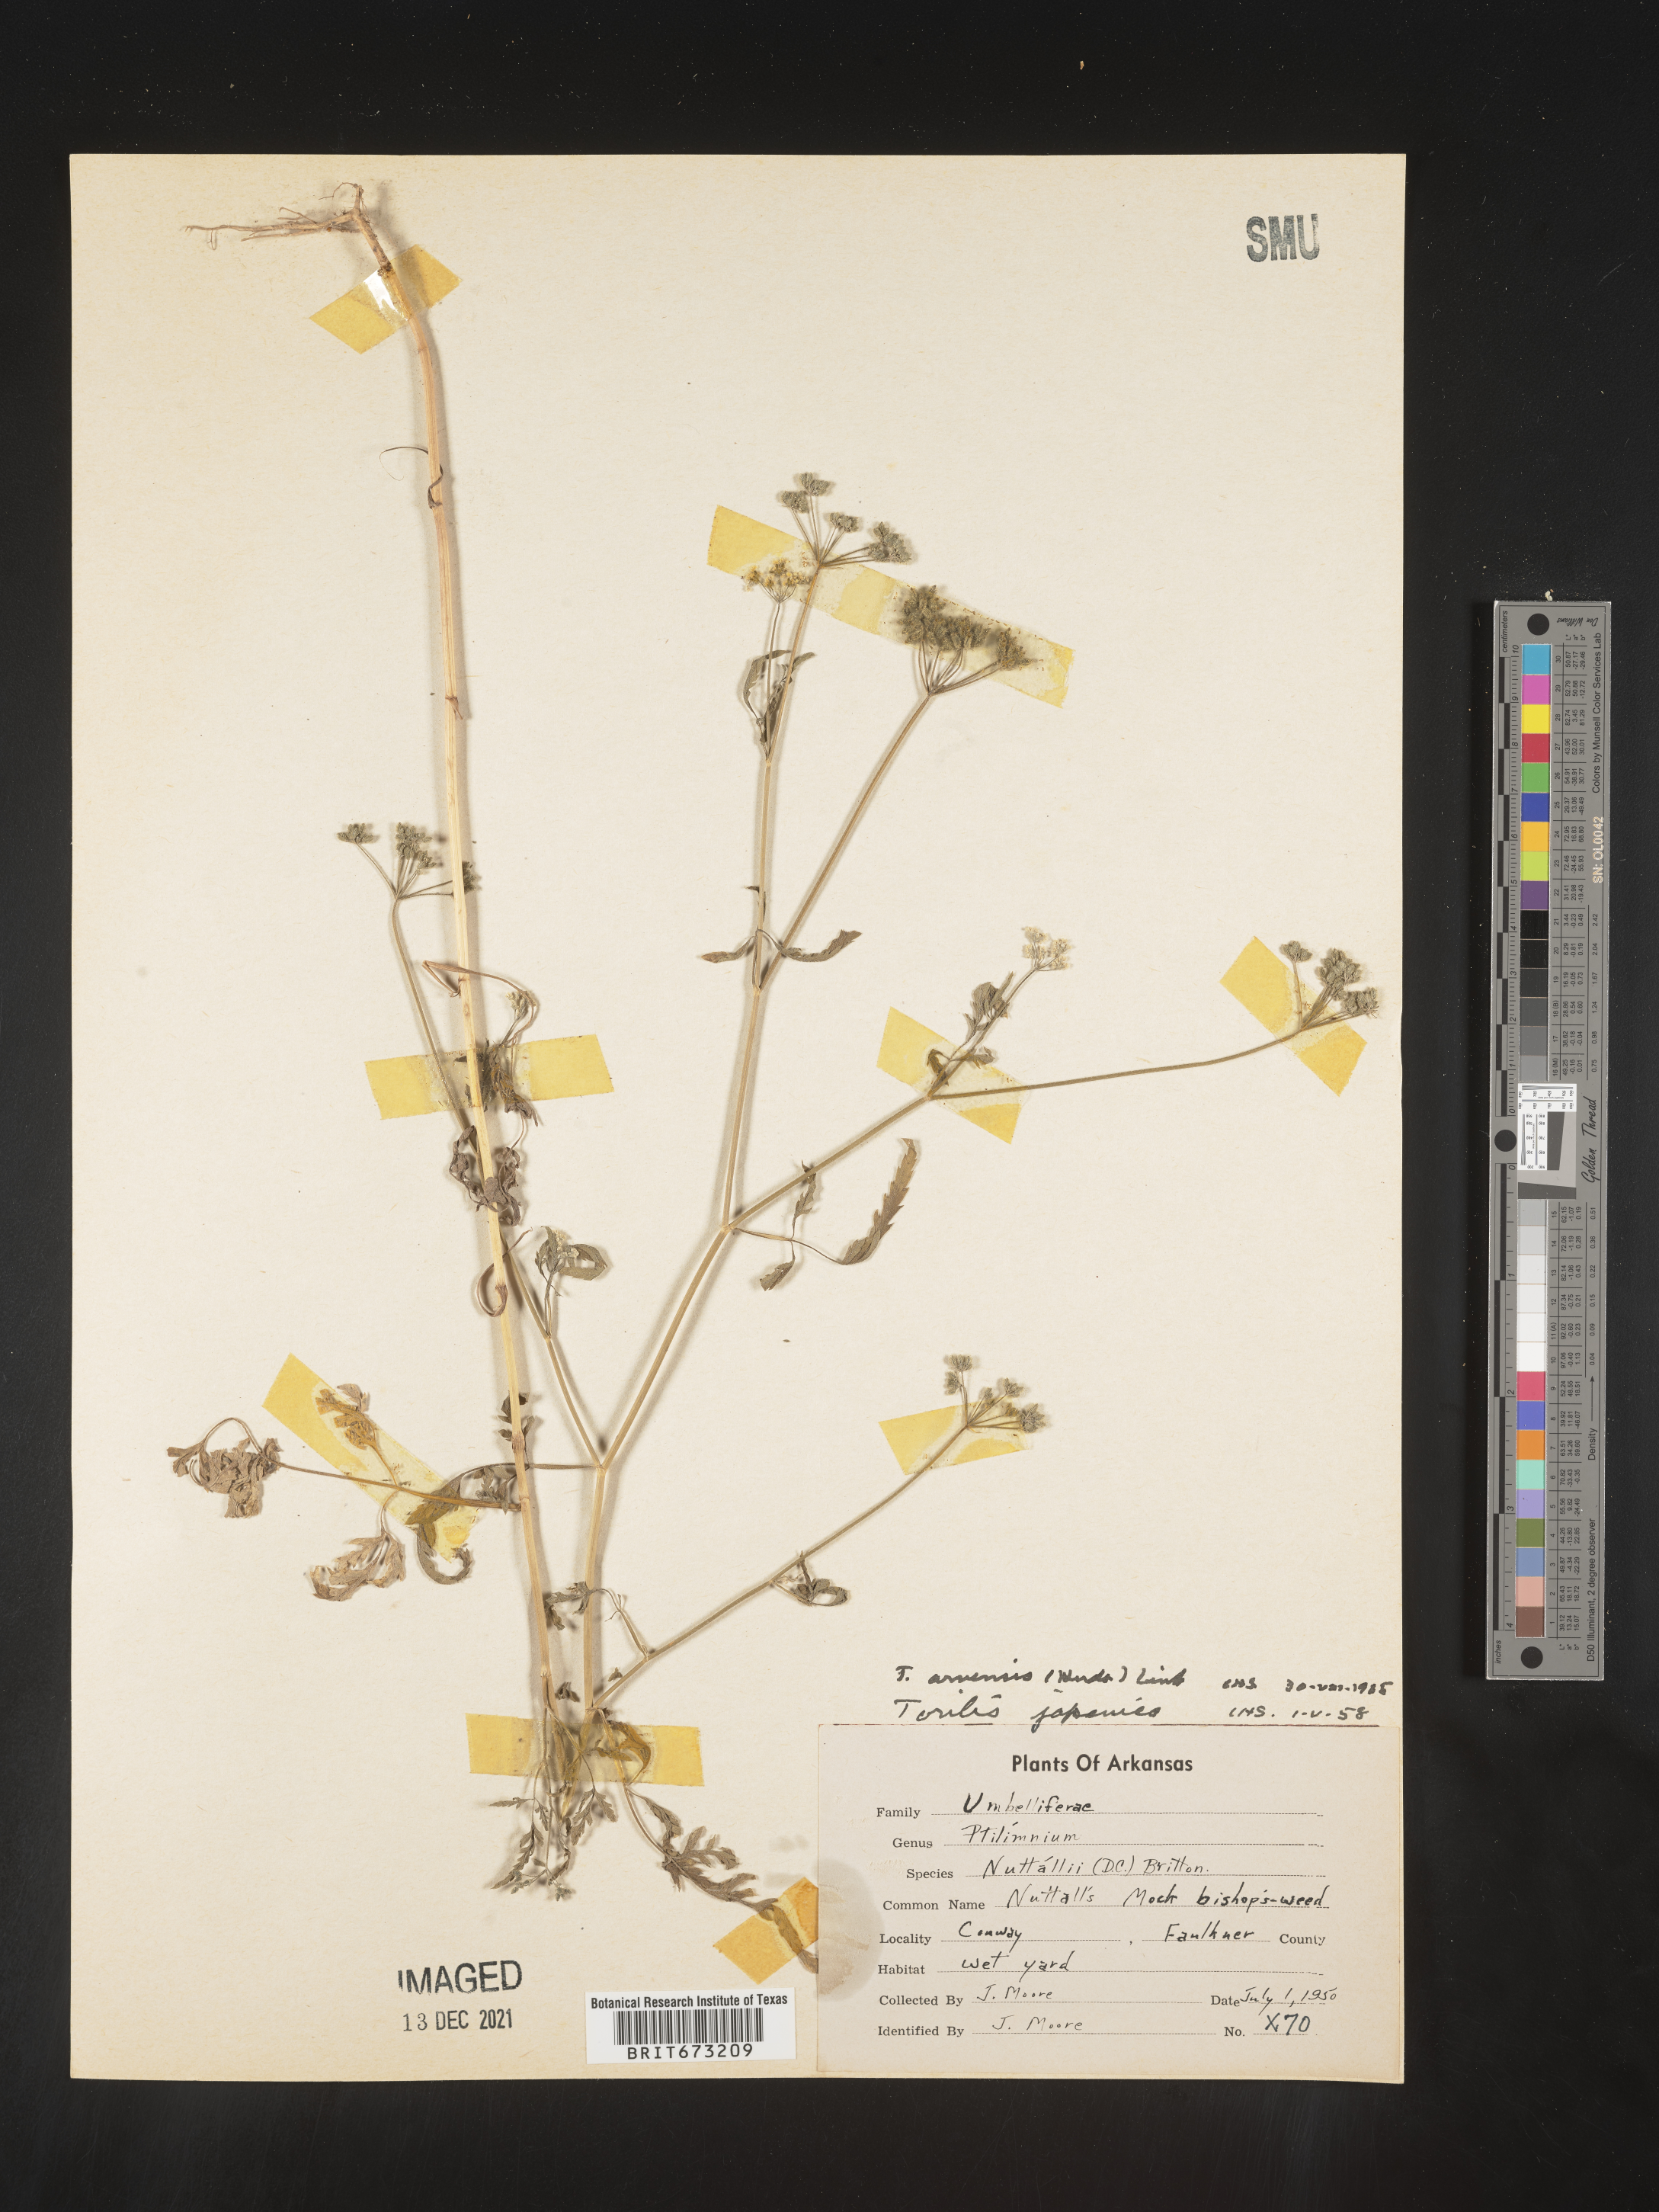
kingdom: Plantae
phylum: Tracheophyta
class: Magnoliopsida
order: Apiales
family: Apiaceae
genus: Torilis
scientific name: Torilis arvensis
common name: Spreading hedge-parsley
